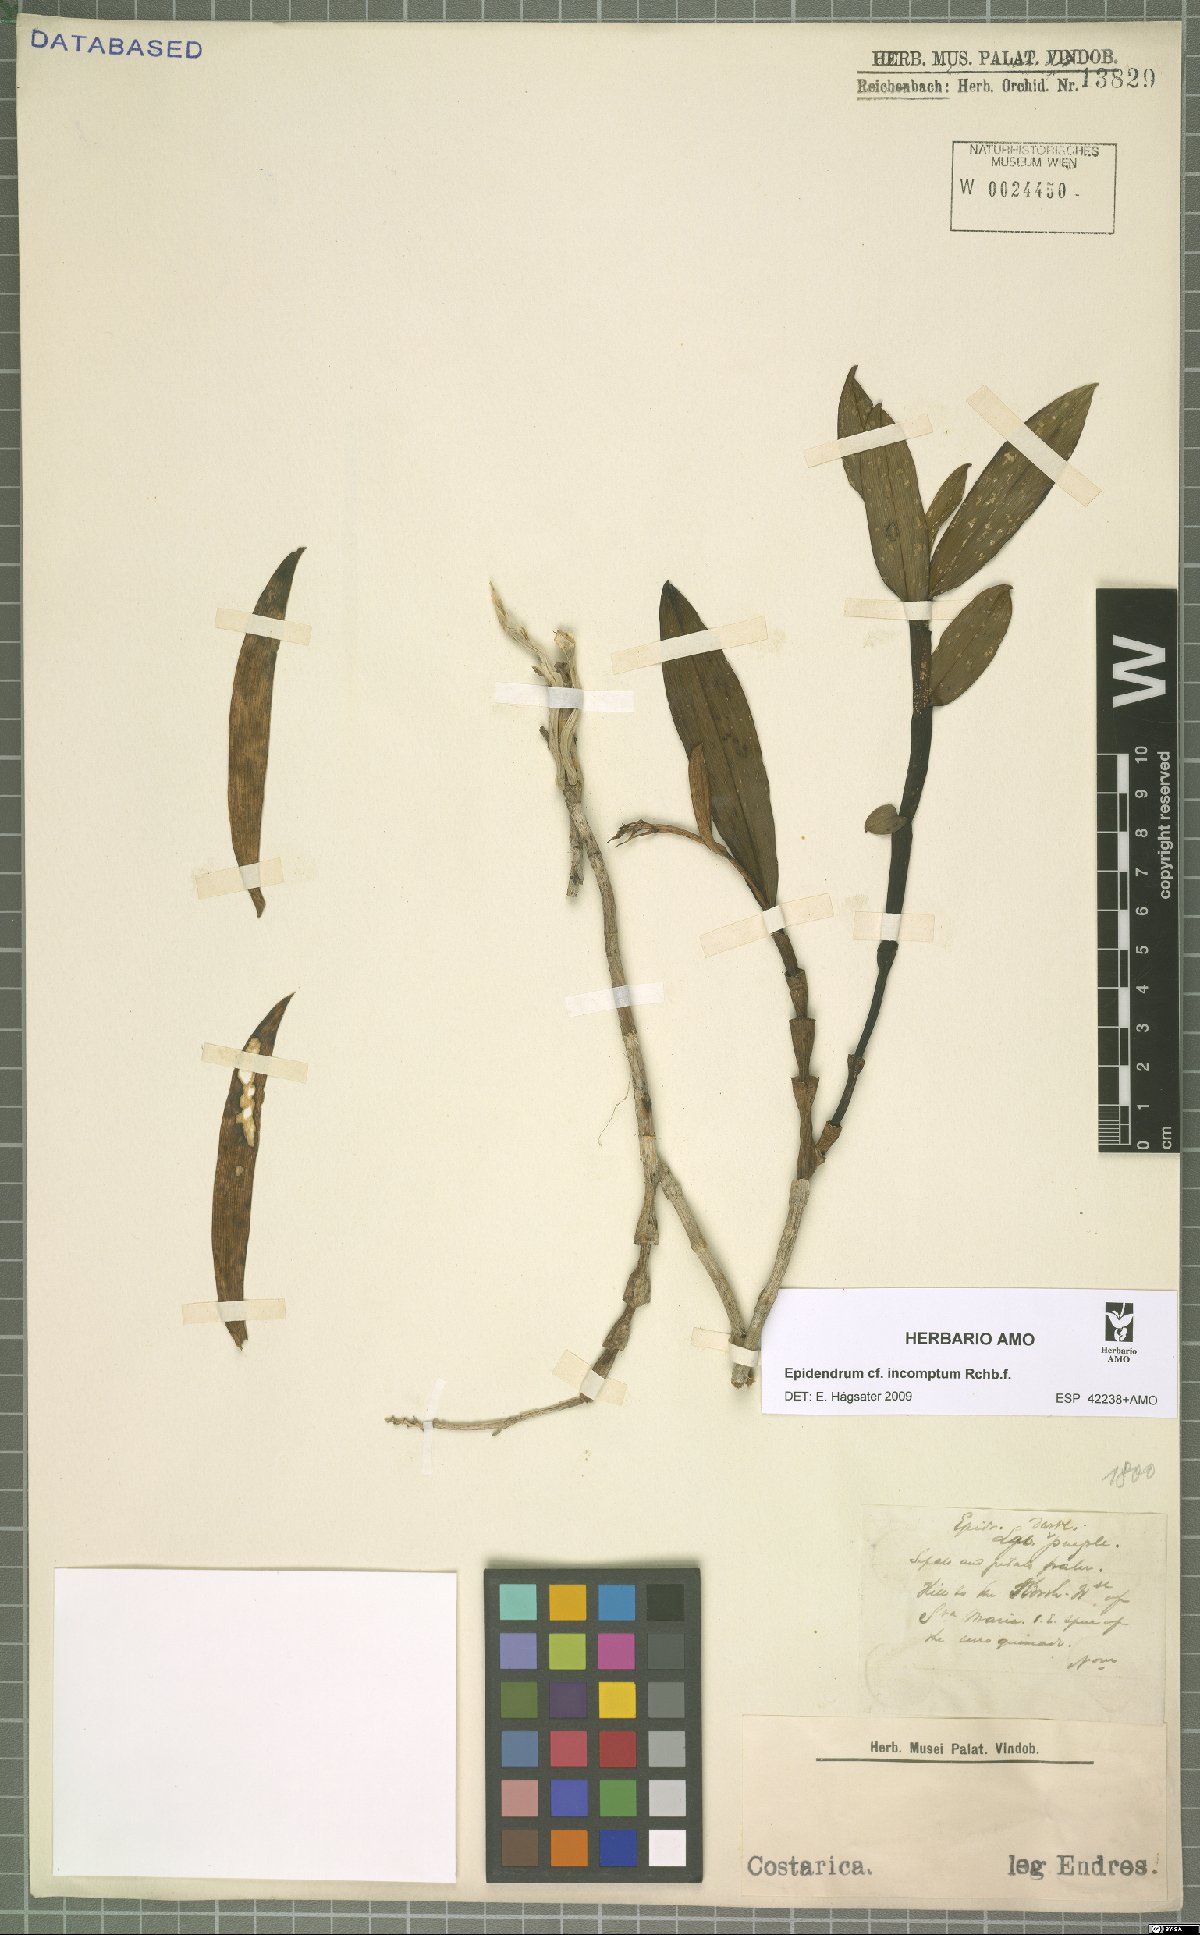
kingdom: Plantae
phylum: Tracheophyta
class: Liliopsida
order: Asparagales
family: Orchidaceae
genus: Epidendrum
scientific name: Epidendrum incomptum
